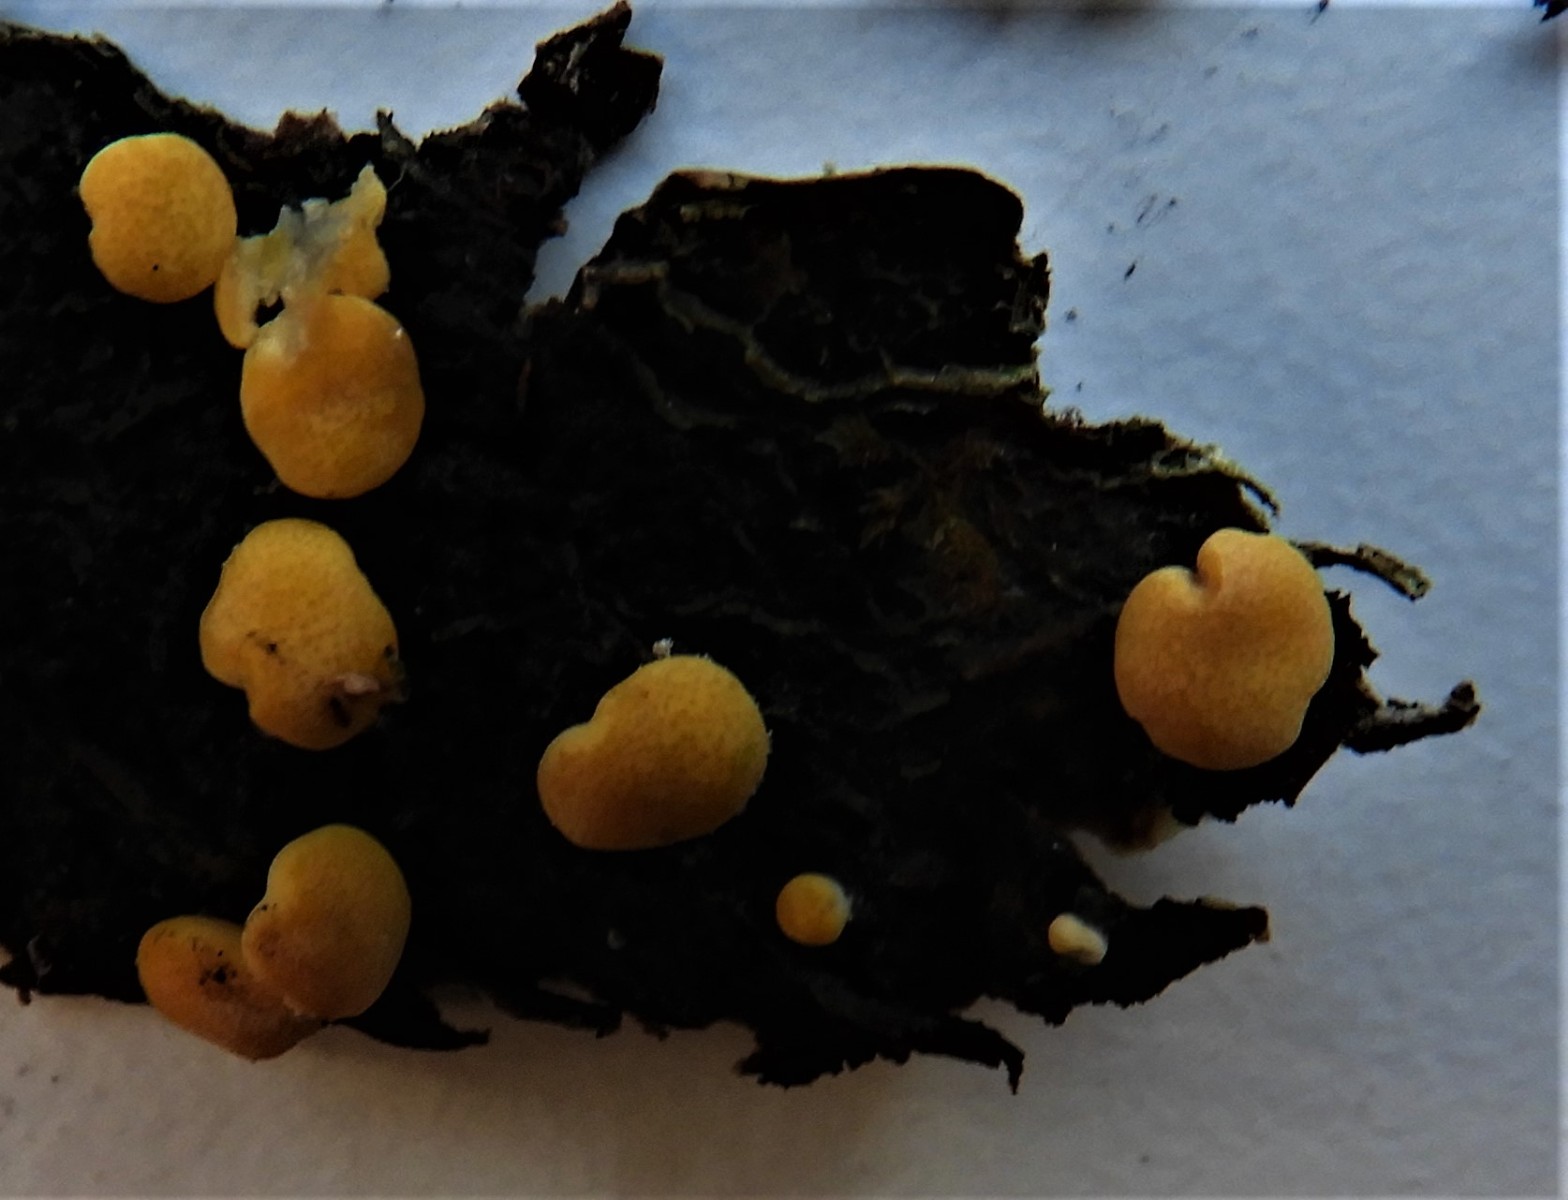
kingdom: Fungi
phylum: Ascomycota
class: Sordariomycetes
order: Hypocreales
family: Hypocreaceae
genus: Trichoderma
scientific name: Trichoderma aureoviride
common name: æggegul kødkerne
